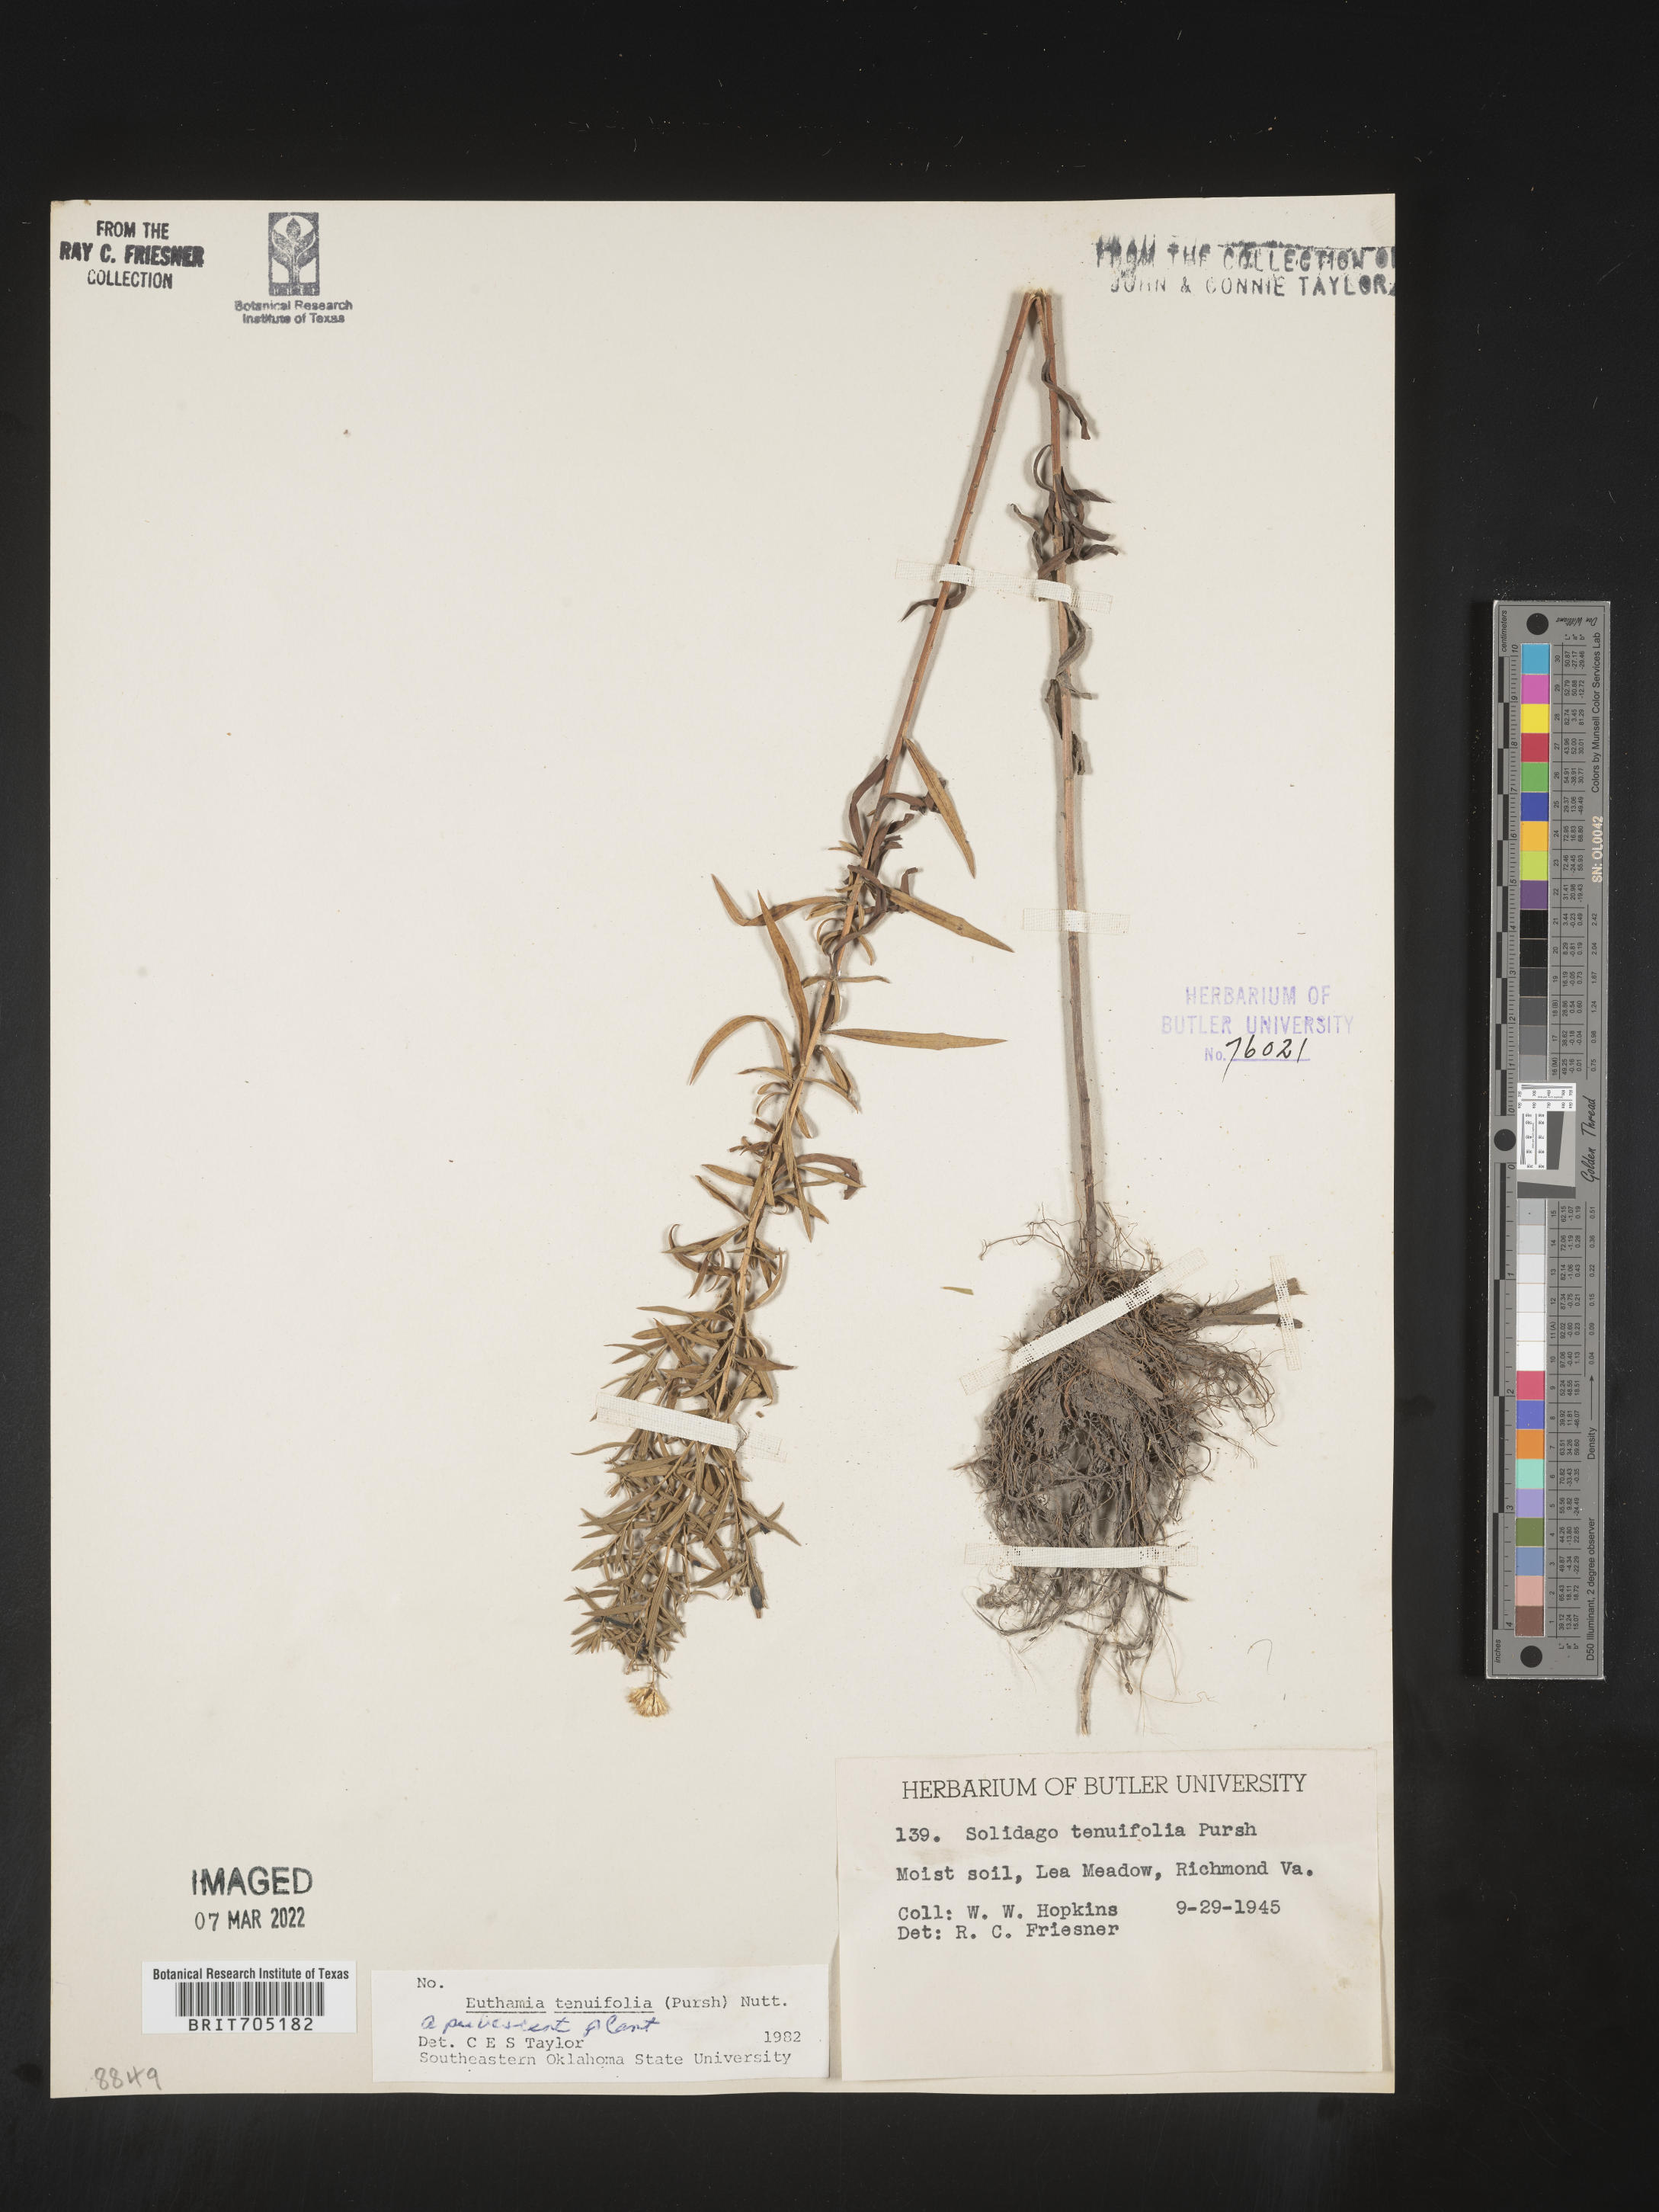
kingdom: Plantae
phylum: Tracheophyta
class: Magnoliopsida
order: Asterales
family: Asteraceae
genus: Euthamia
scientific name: Euthamia
